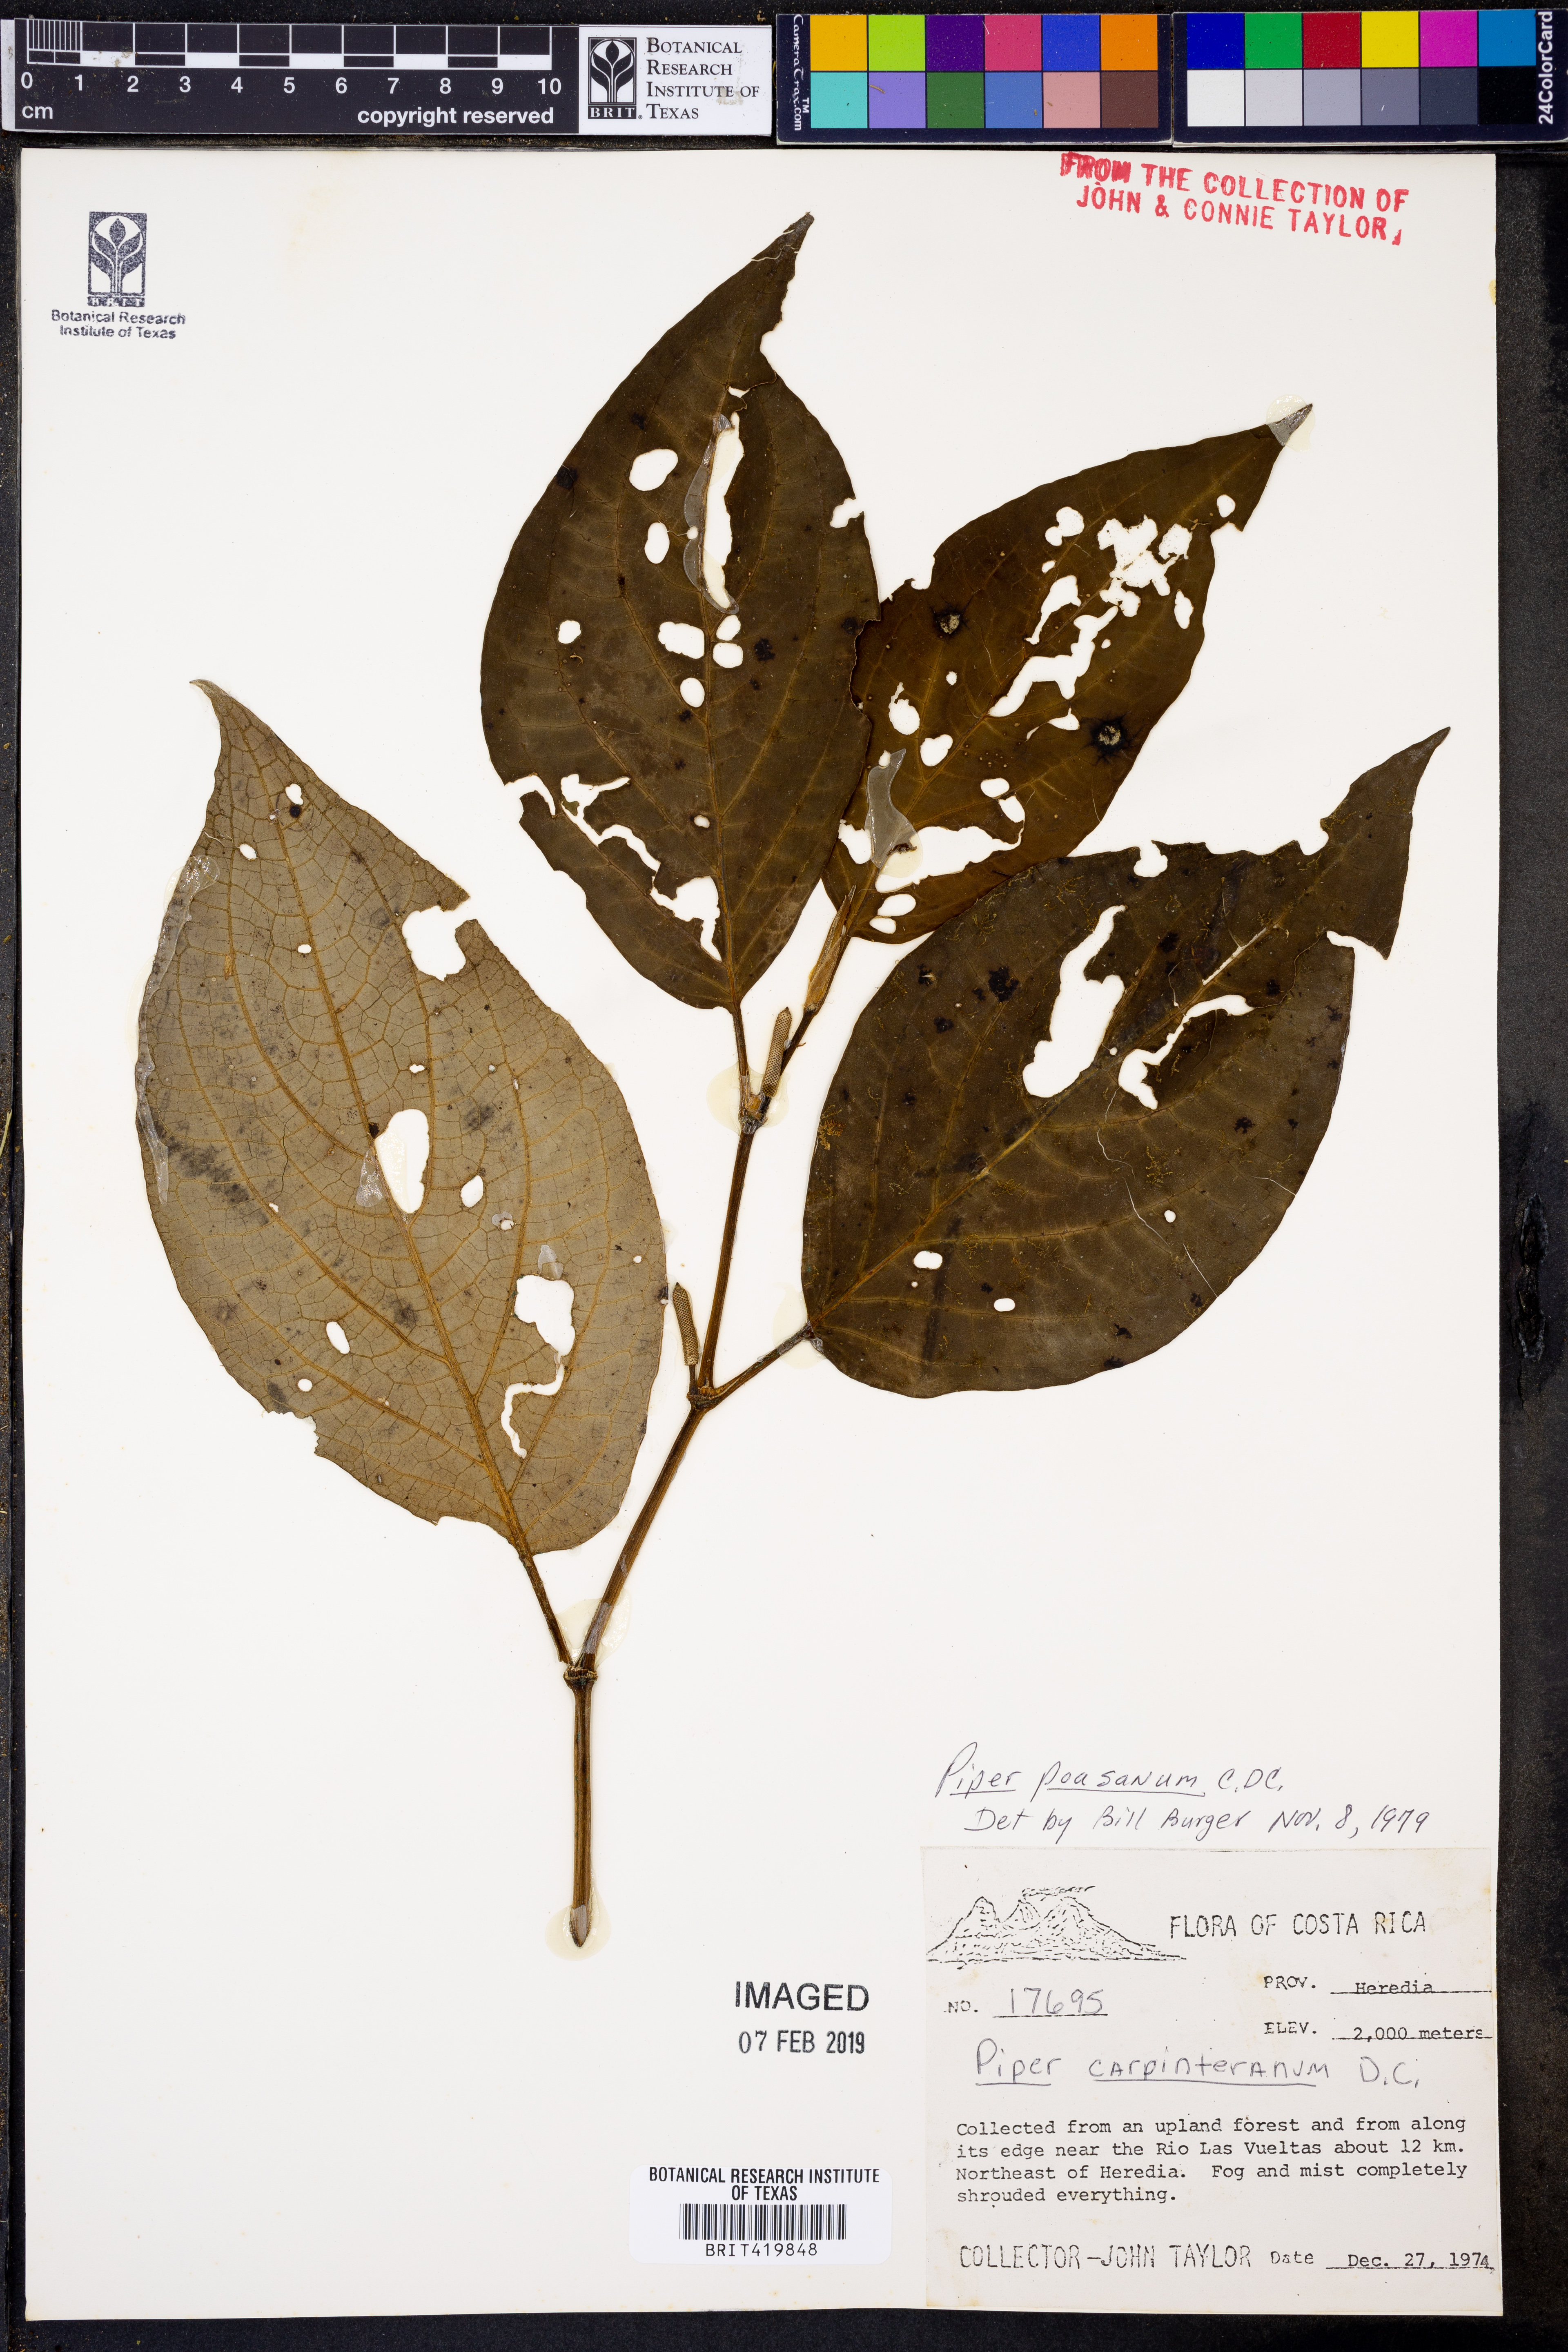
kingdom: Plantae
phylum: Tracheophyta
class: Magnoliopsida
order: Piperales
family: Piperaceae
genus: Piper
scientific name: Piper poasanum
